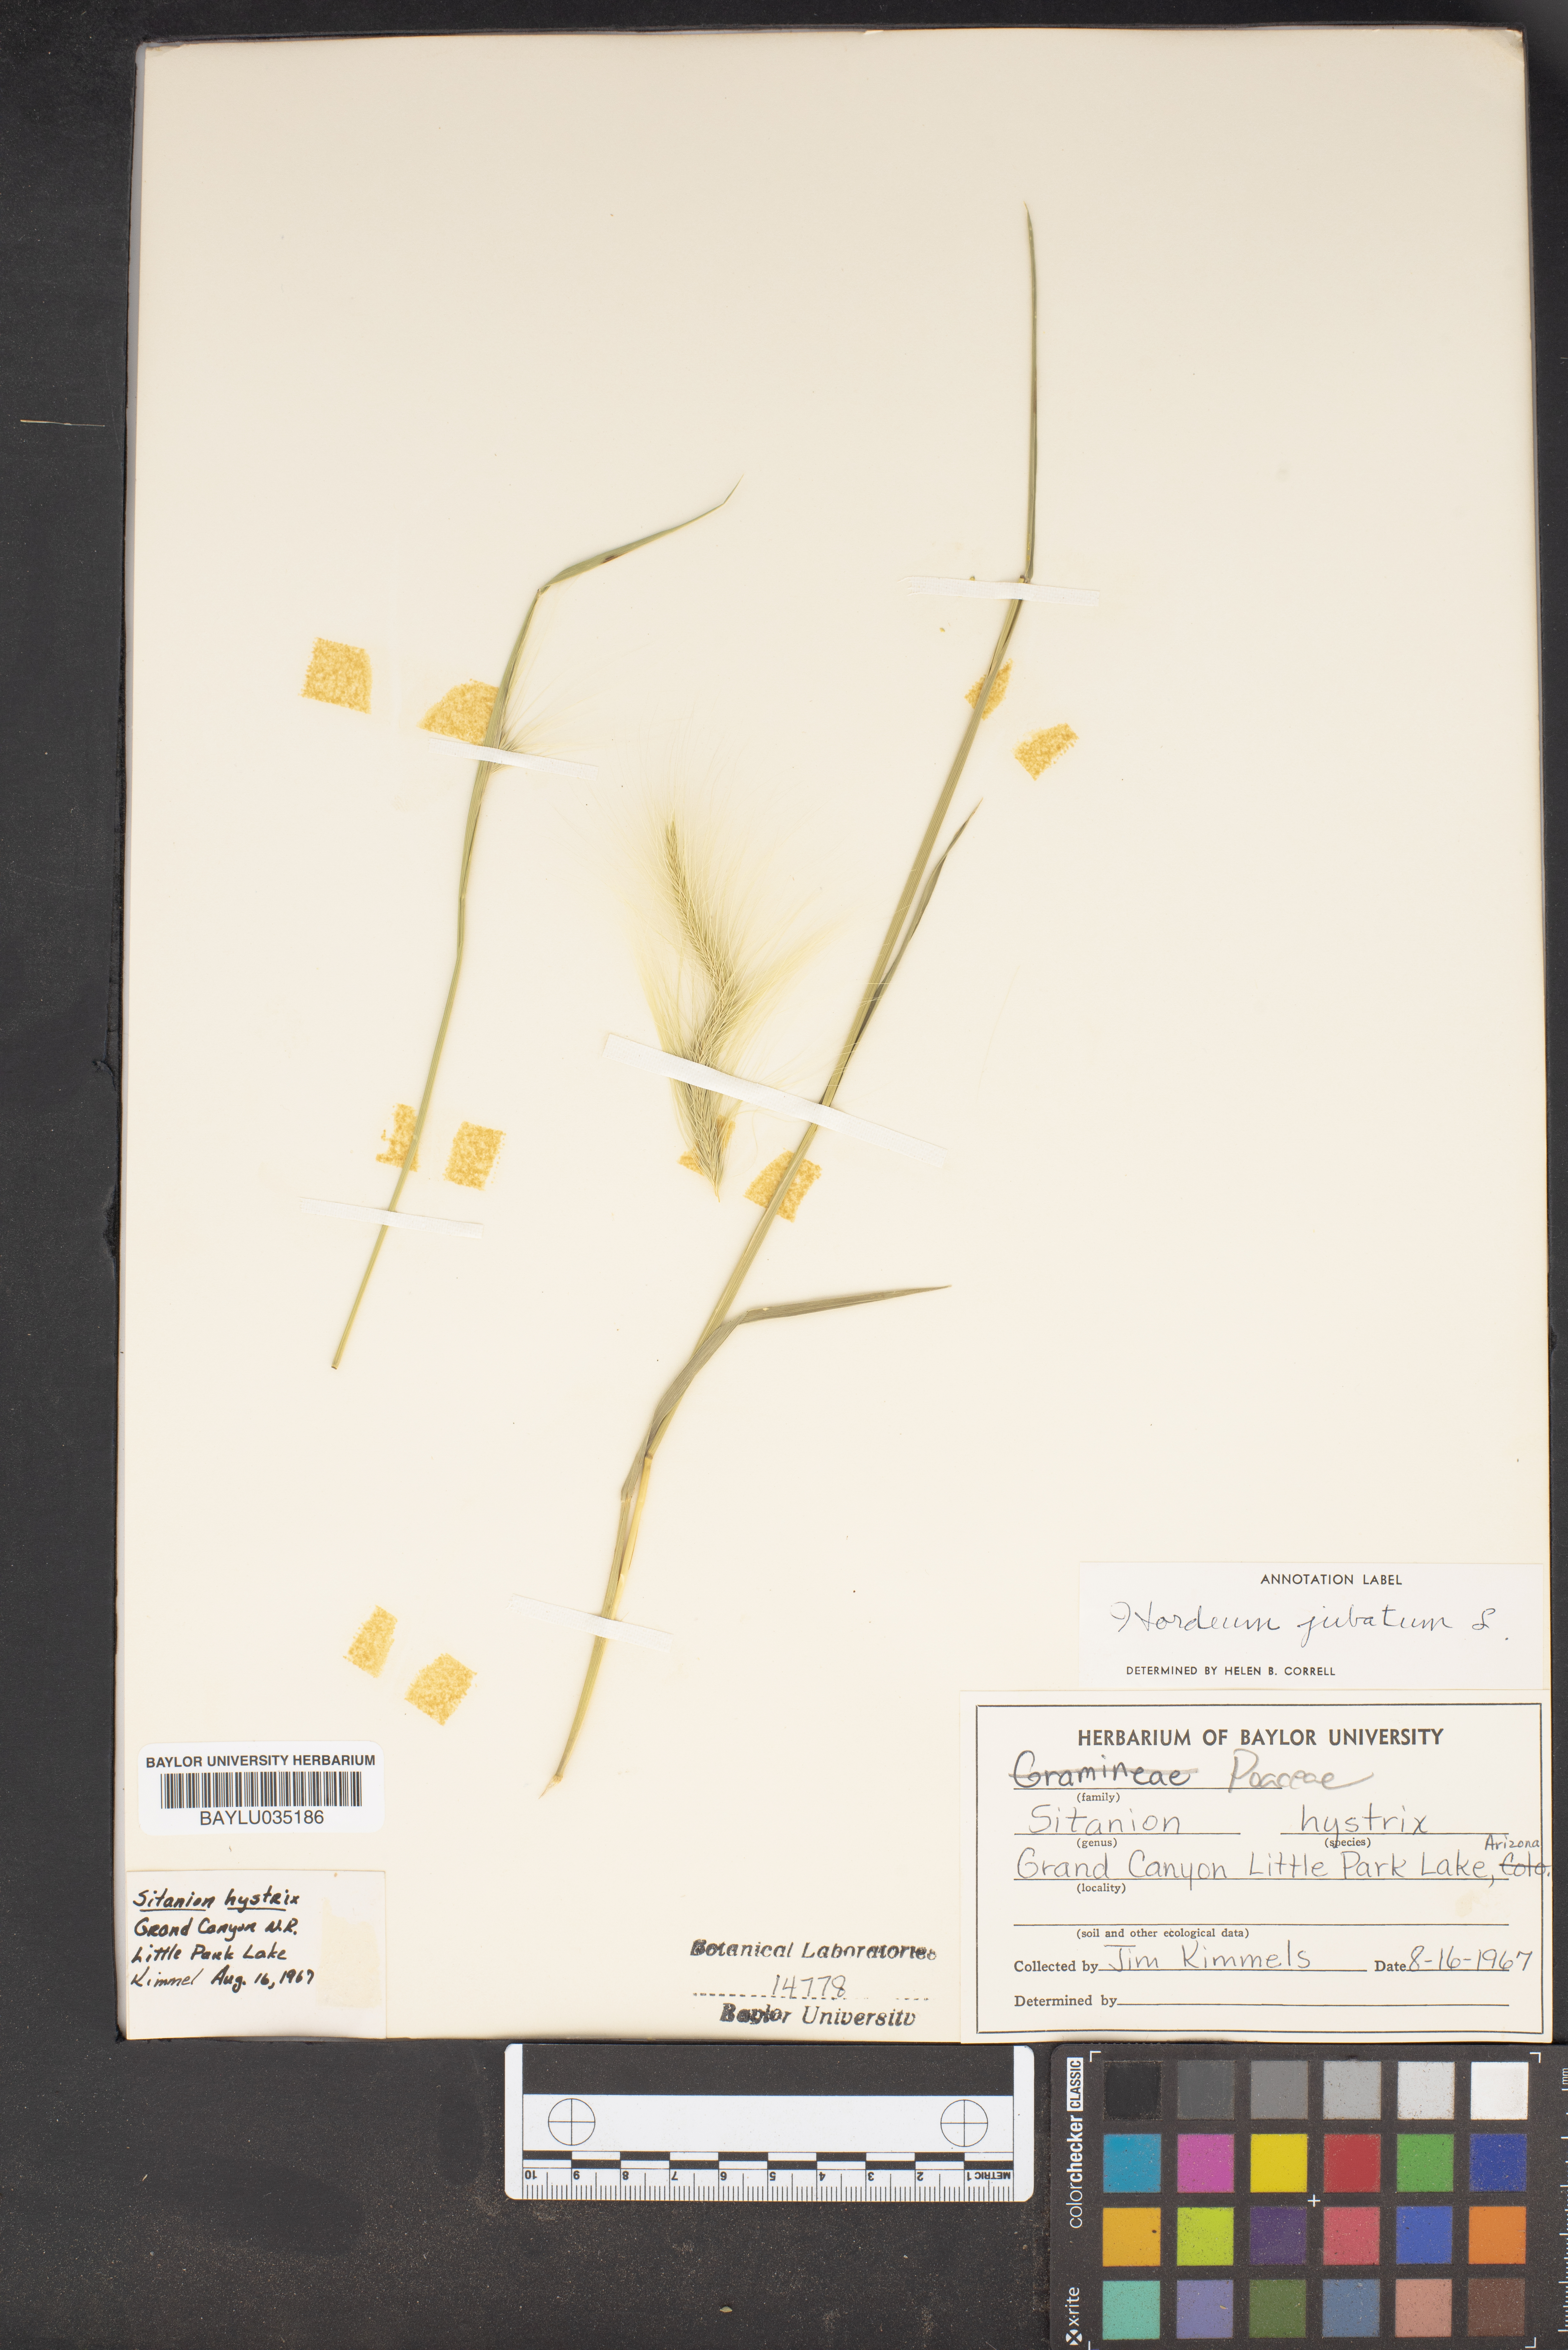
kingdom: Plantae
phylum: Tracheophyta
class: Liliopsida
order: Poales
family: Poaceae
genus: Hordeum
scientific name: Hordeum jubatum
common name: Foxtail barley
